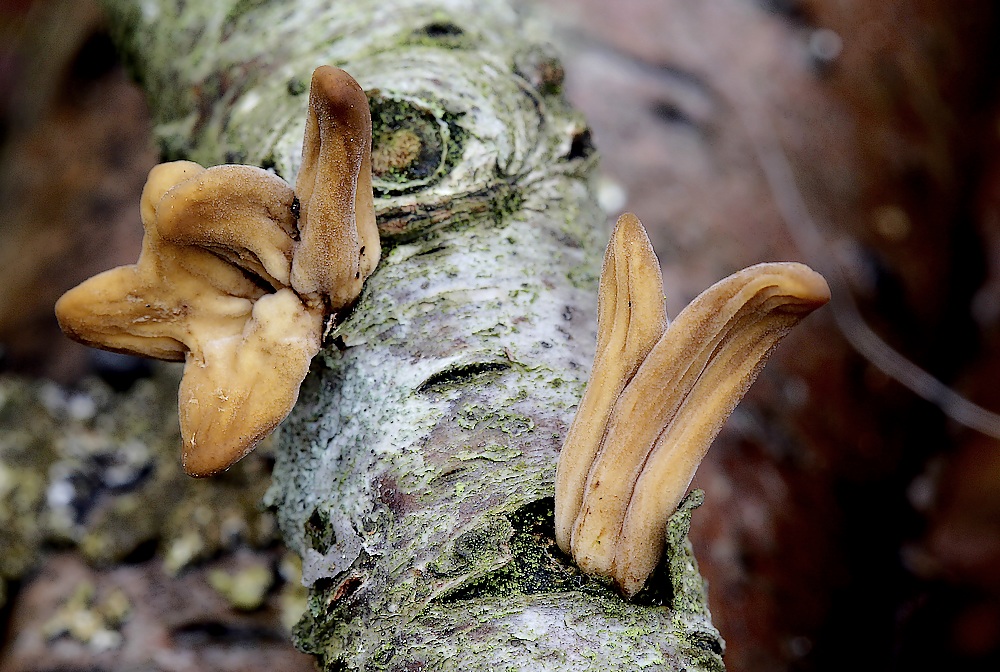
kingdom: Fungi
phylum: Basidiomycota
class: Agaricomycetes
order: Agaricales
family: Typhulaceae
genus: Typhula
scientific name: Typhula contorta
